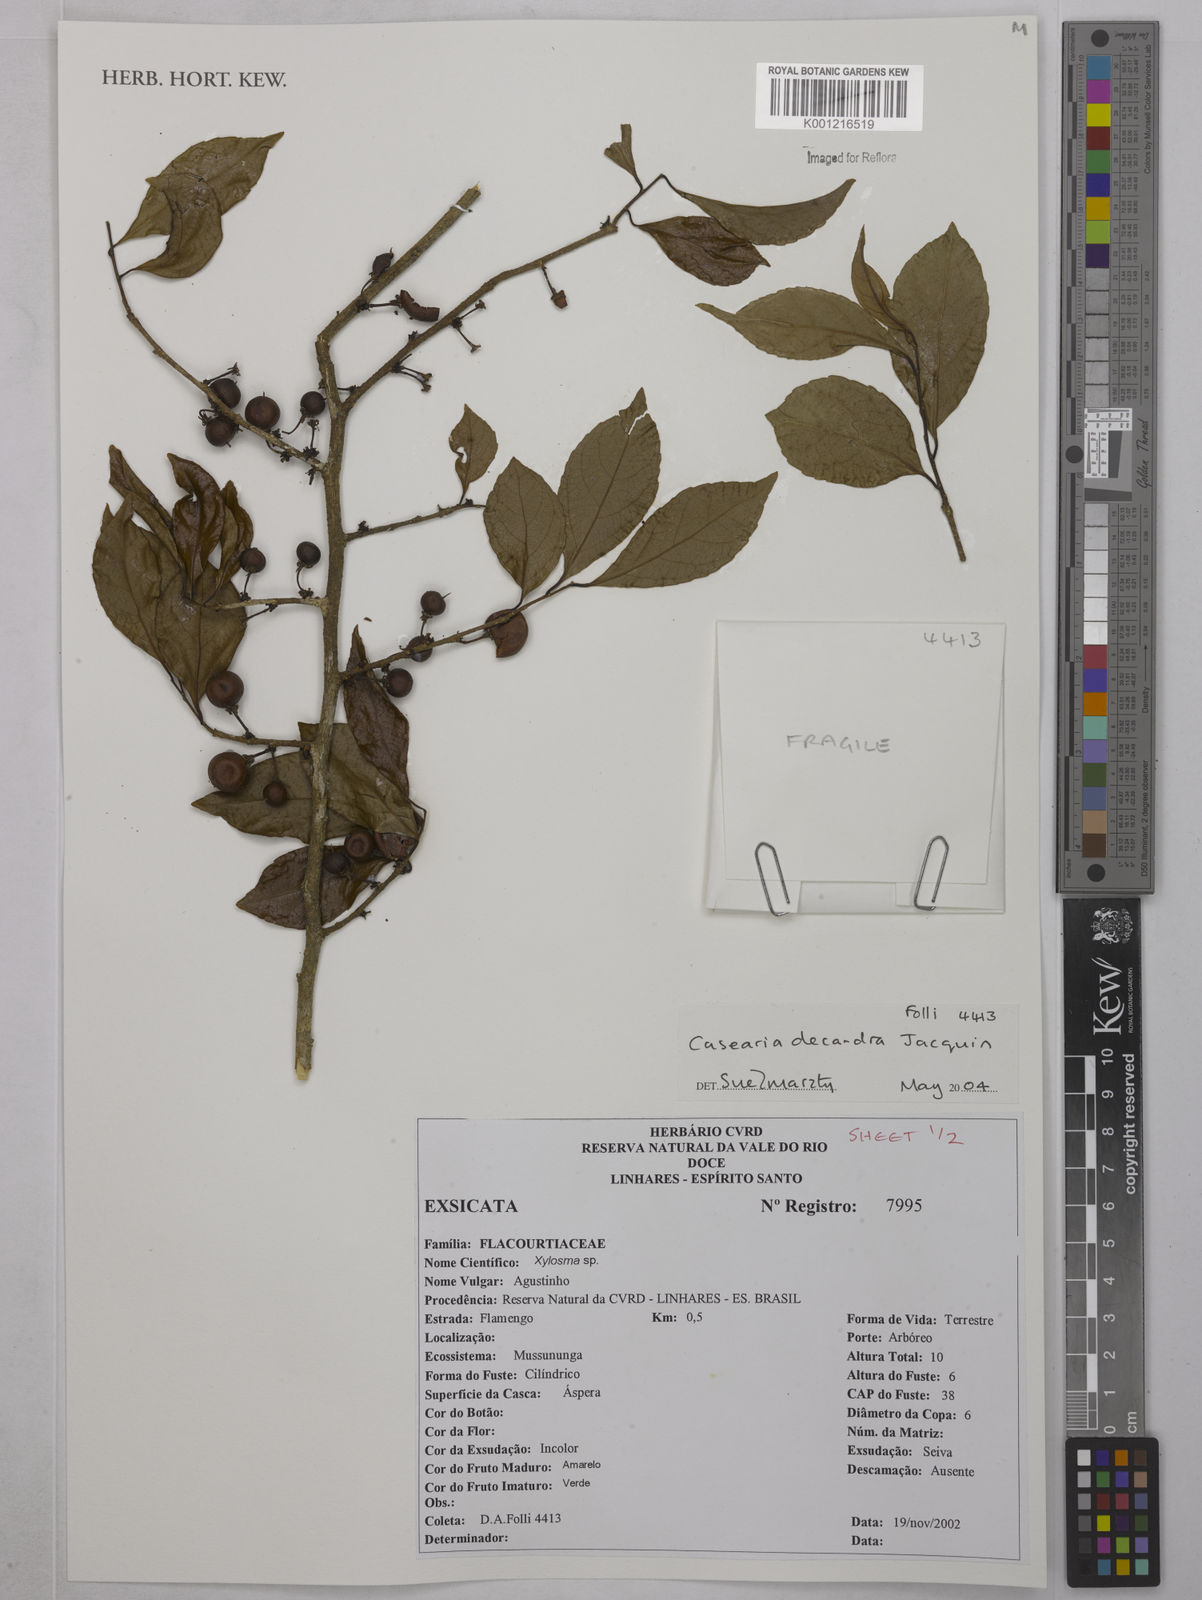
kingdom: Plantae
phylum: Tracheophyta
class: Magnoliopsida
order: Malpighiales
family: Salicaceae
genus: Casearia
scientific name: Casearia decandra
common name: Crack open
